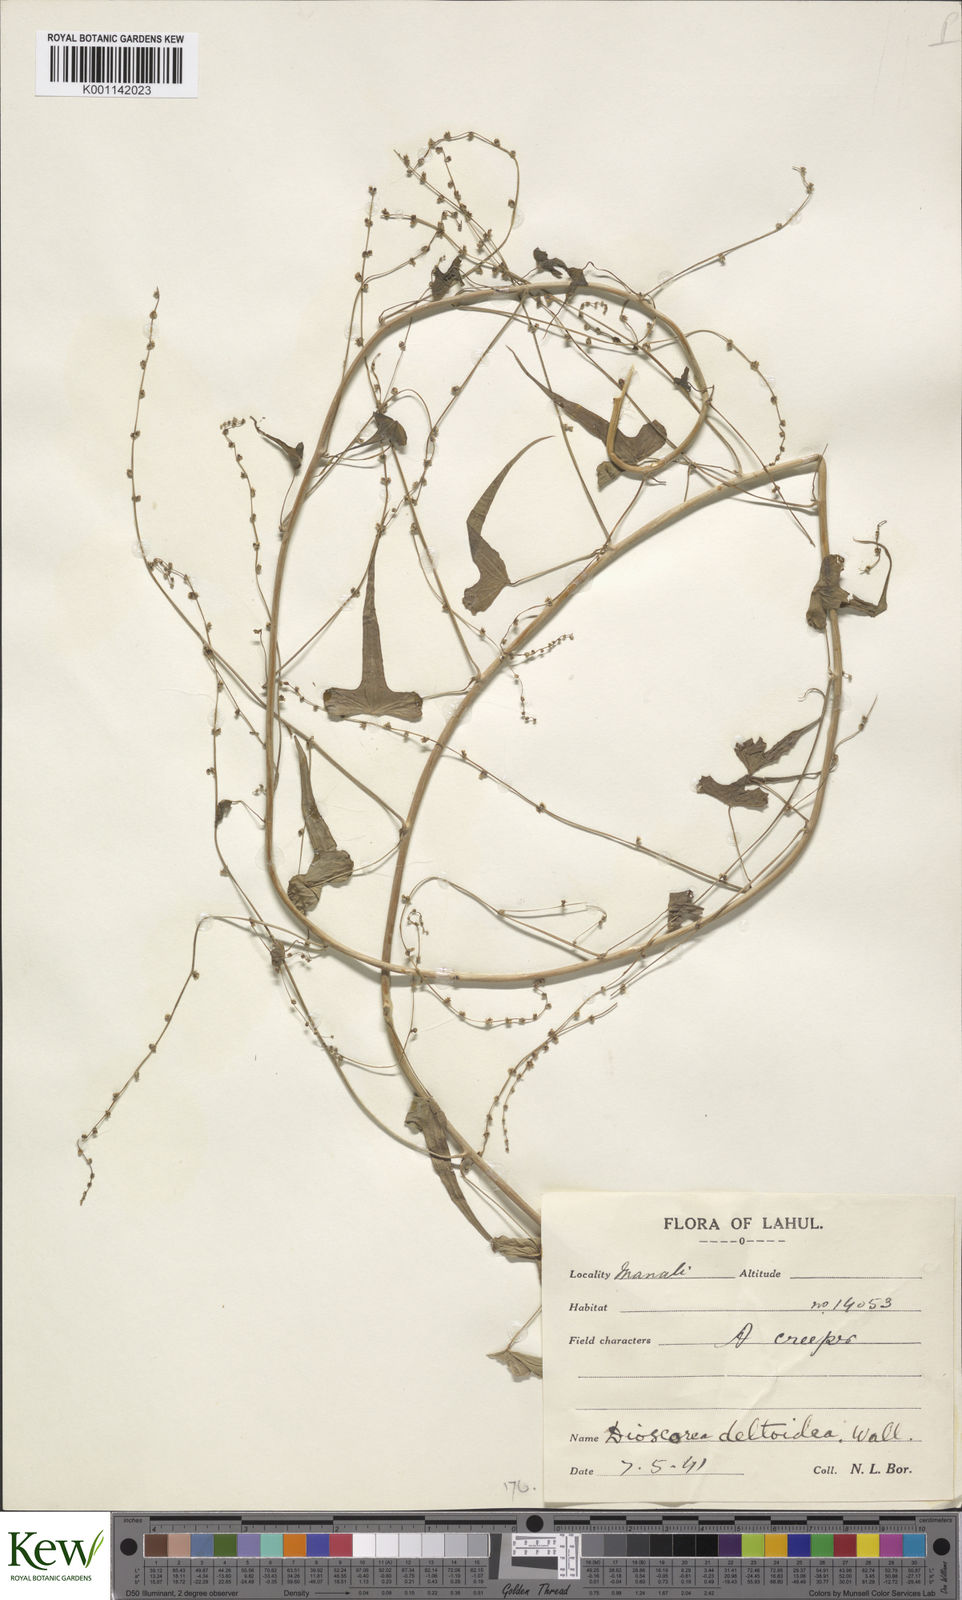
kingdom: Plantae
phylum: Tracheophyta
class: Liliopsida
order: Dioscoreales
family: Dioscoreaceae
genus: Dioscorea
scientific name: Dioscorea deltoidea
